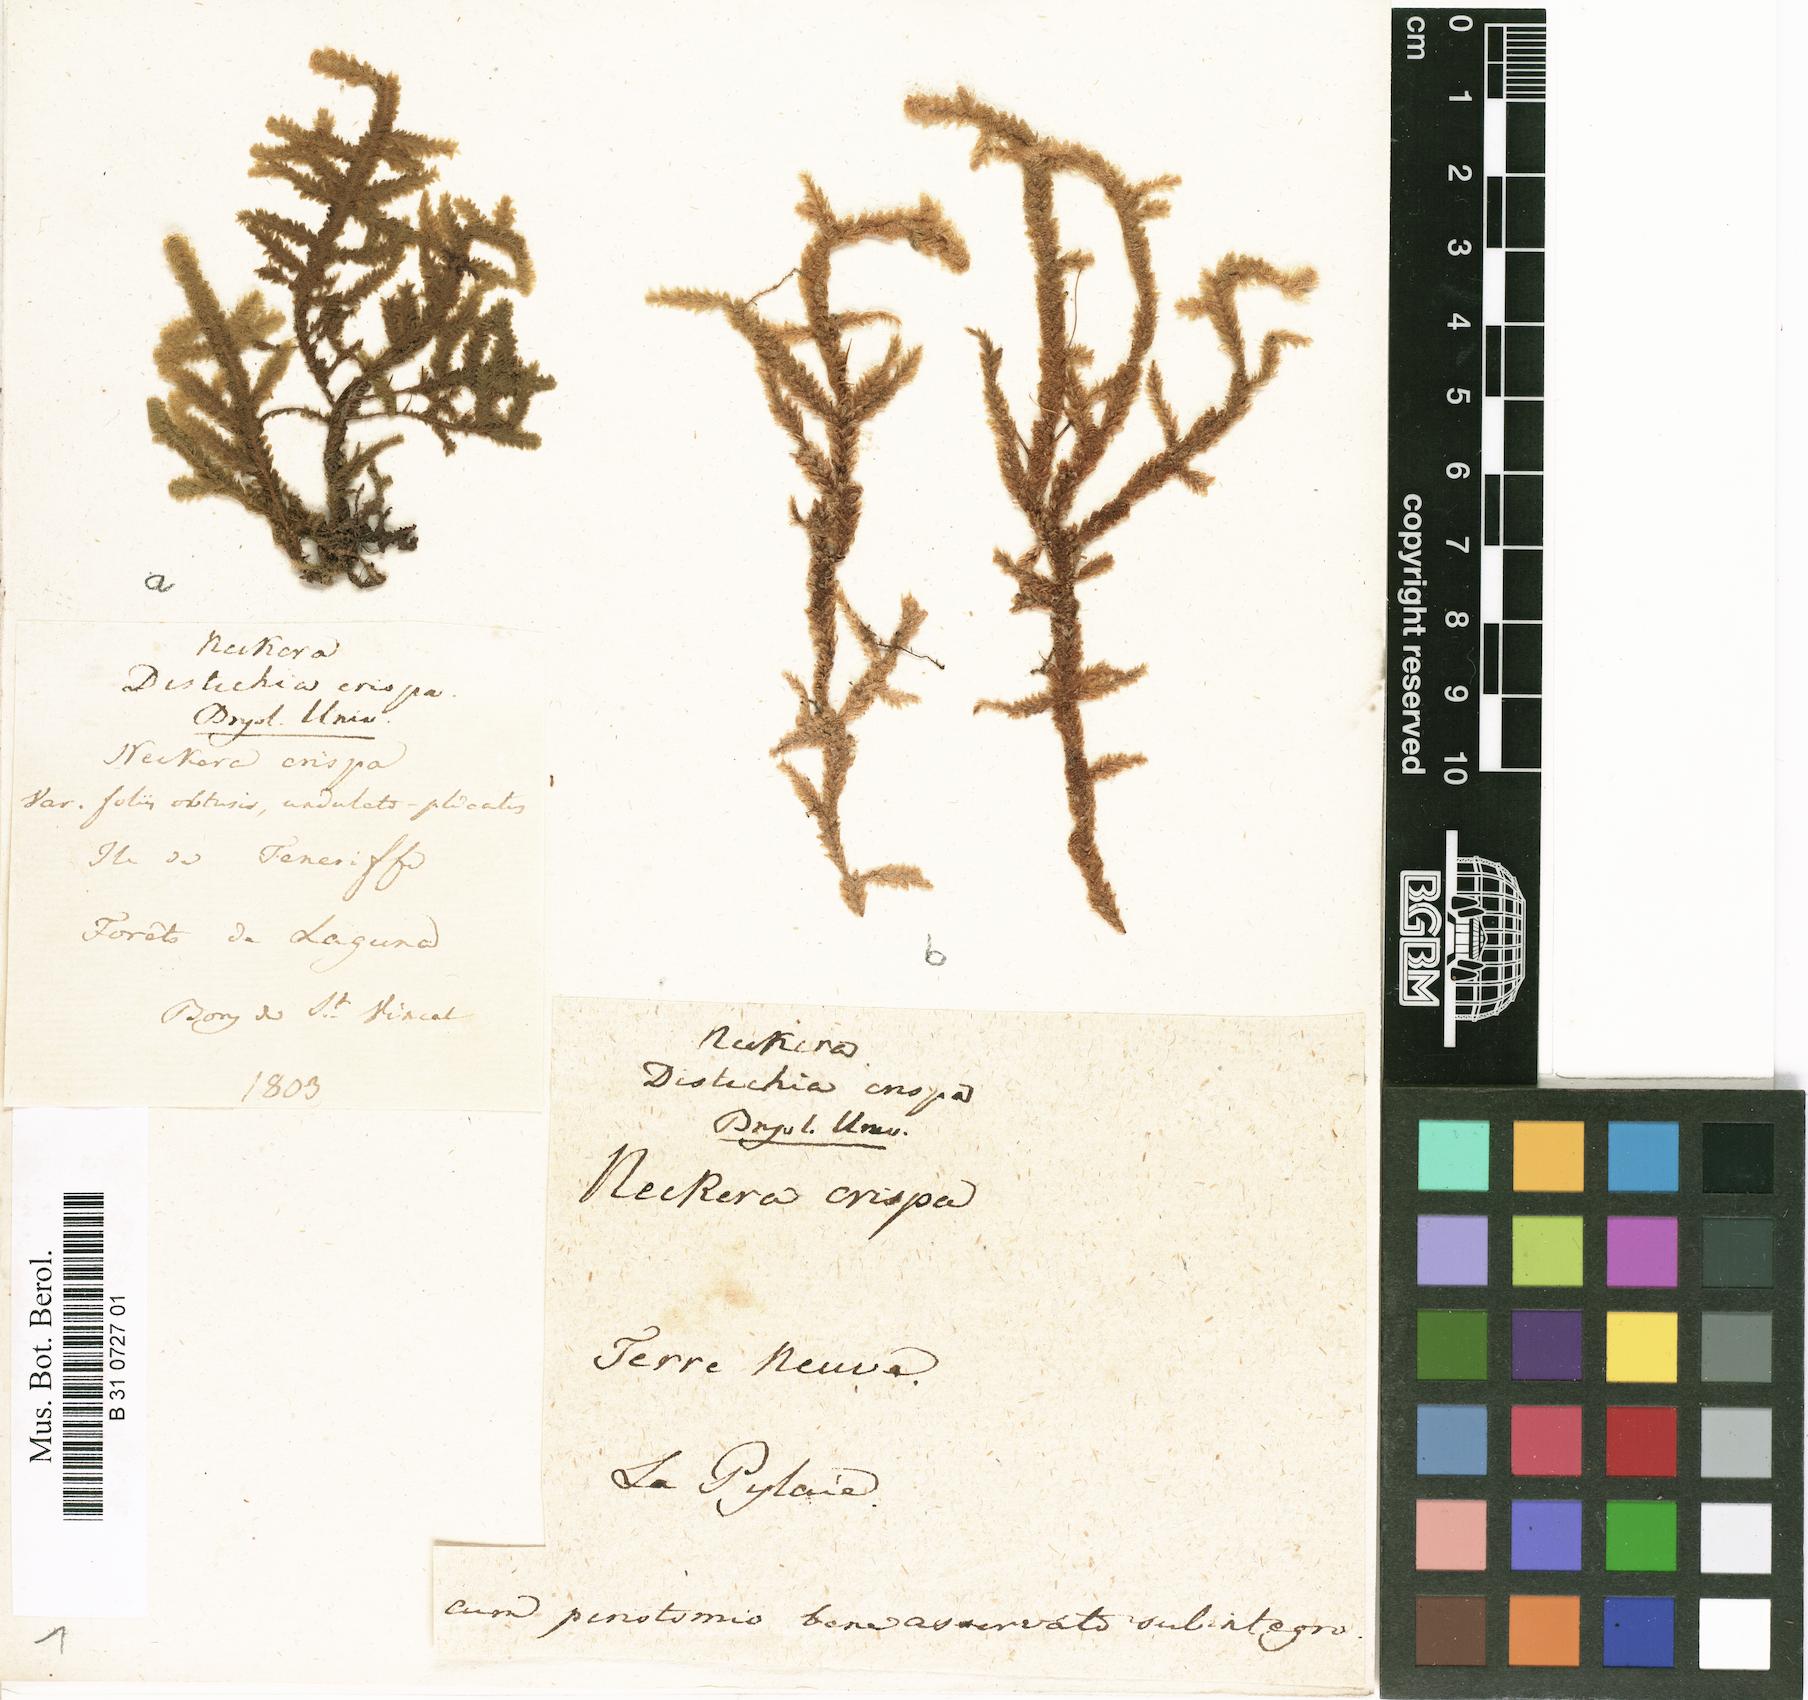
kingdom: Plantae
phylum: Bryophyta
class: Bryopsida
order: Hypnales
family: Neckeraceae
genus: Exsertotheca
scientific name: Exsertotheca crispa
